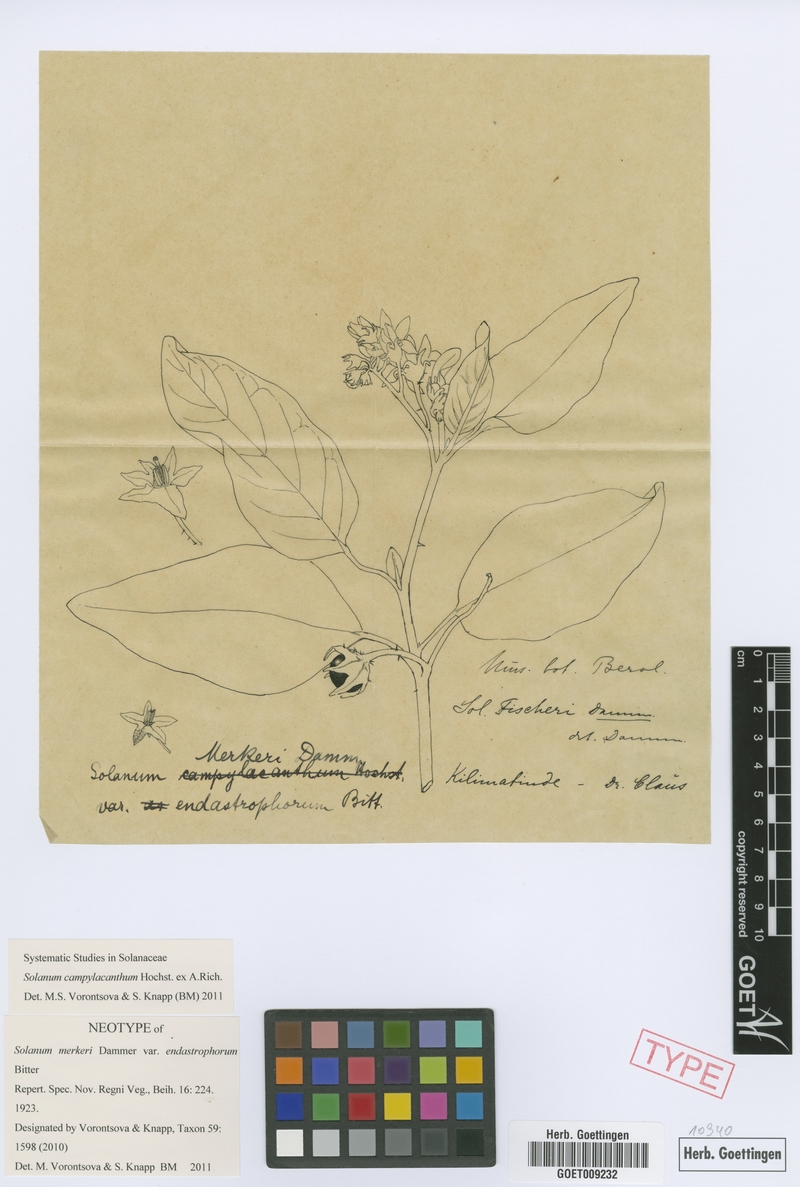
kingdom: Plantae
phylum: Tracheophyta
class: Magnoliopsida
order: Solanales
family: Solanaceae
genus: Solanum
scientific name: Solanum campylacanthum
